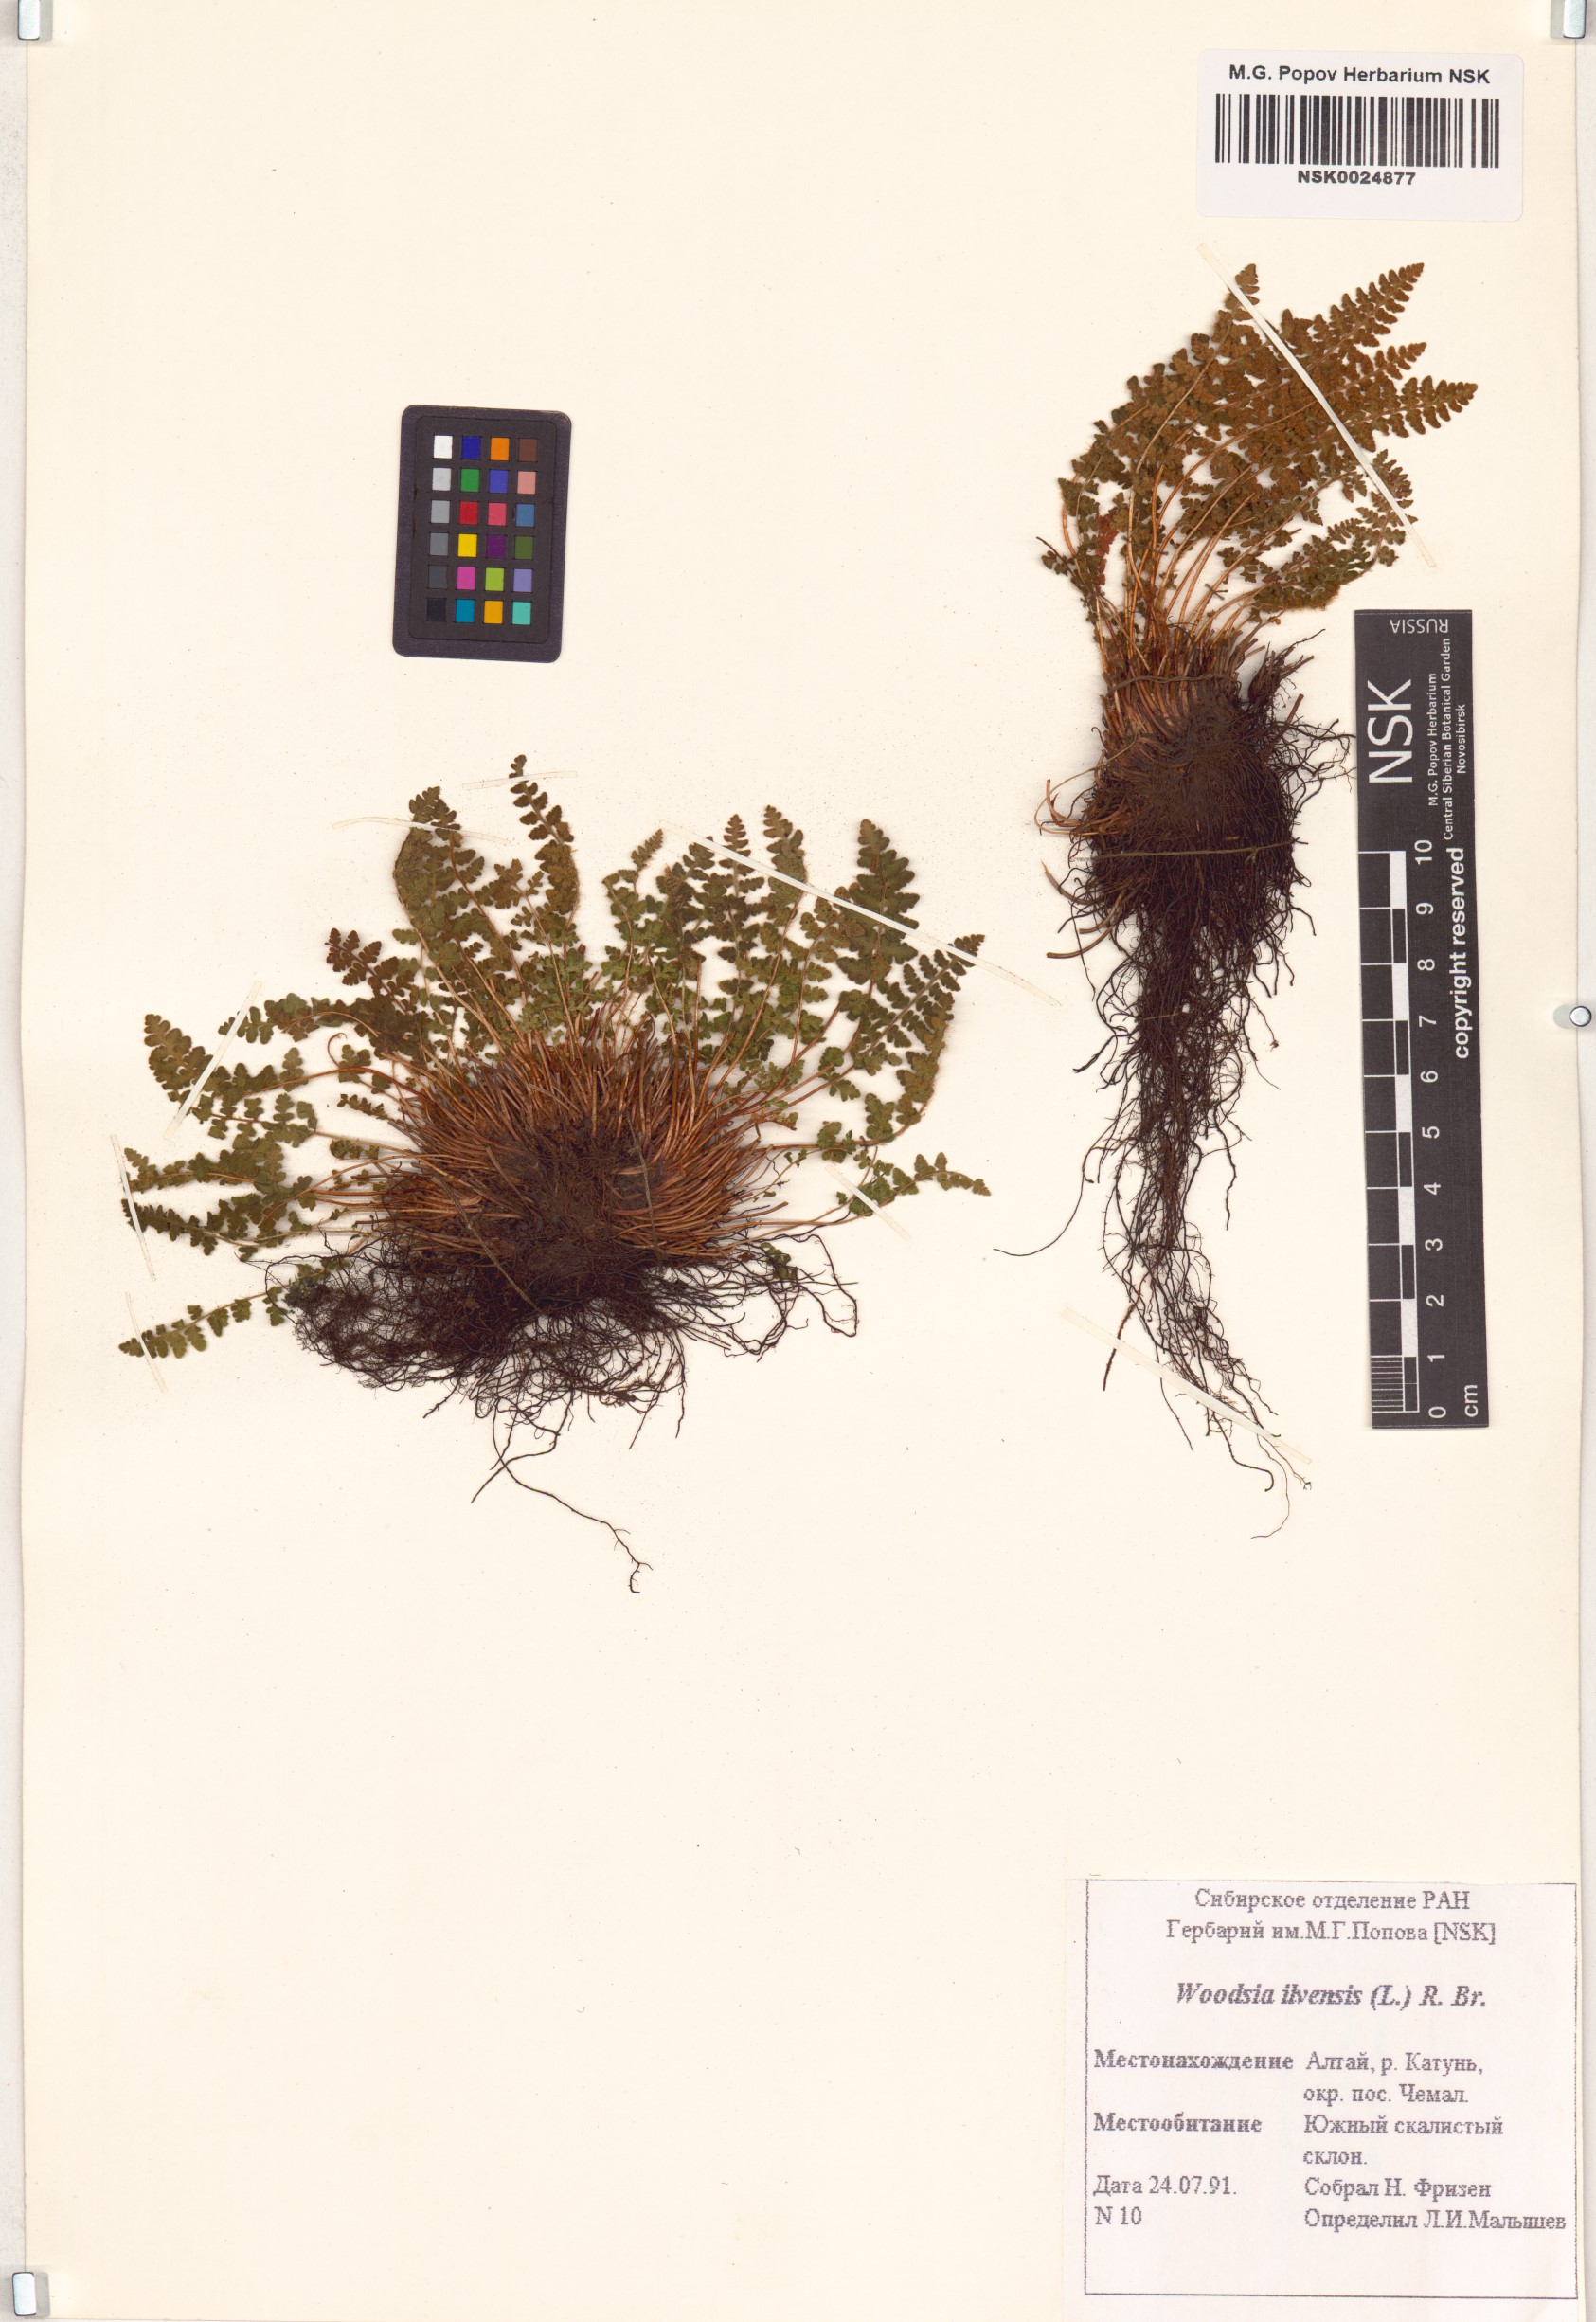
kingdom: Plantae
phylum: Tracheophyta
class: Polypodiopsida
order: Polypodiales
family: Woodsiaceae
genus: Woodsia
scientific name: Woodsia ilvensis
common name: Fragrant woodsia
